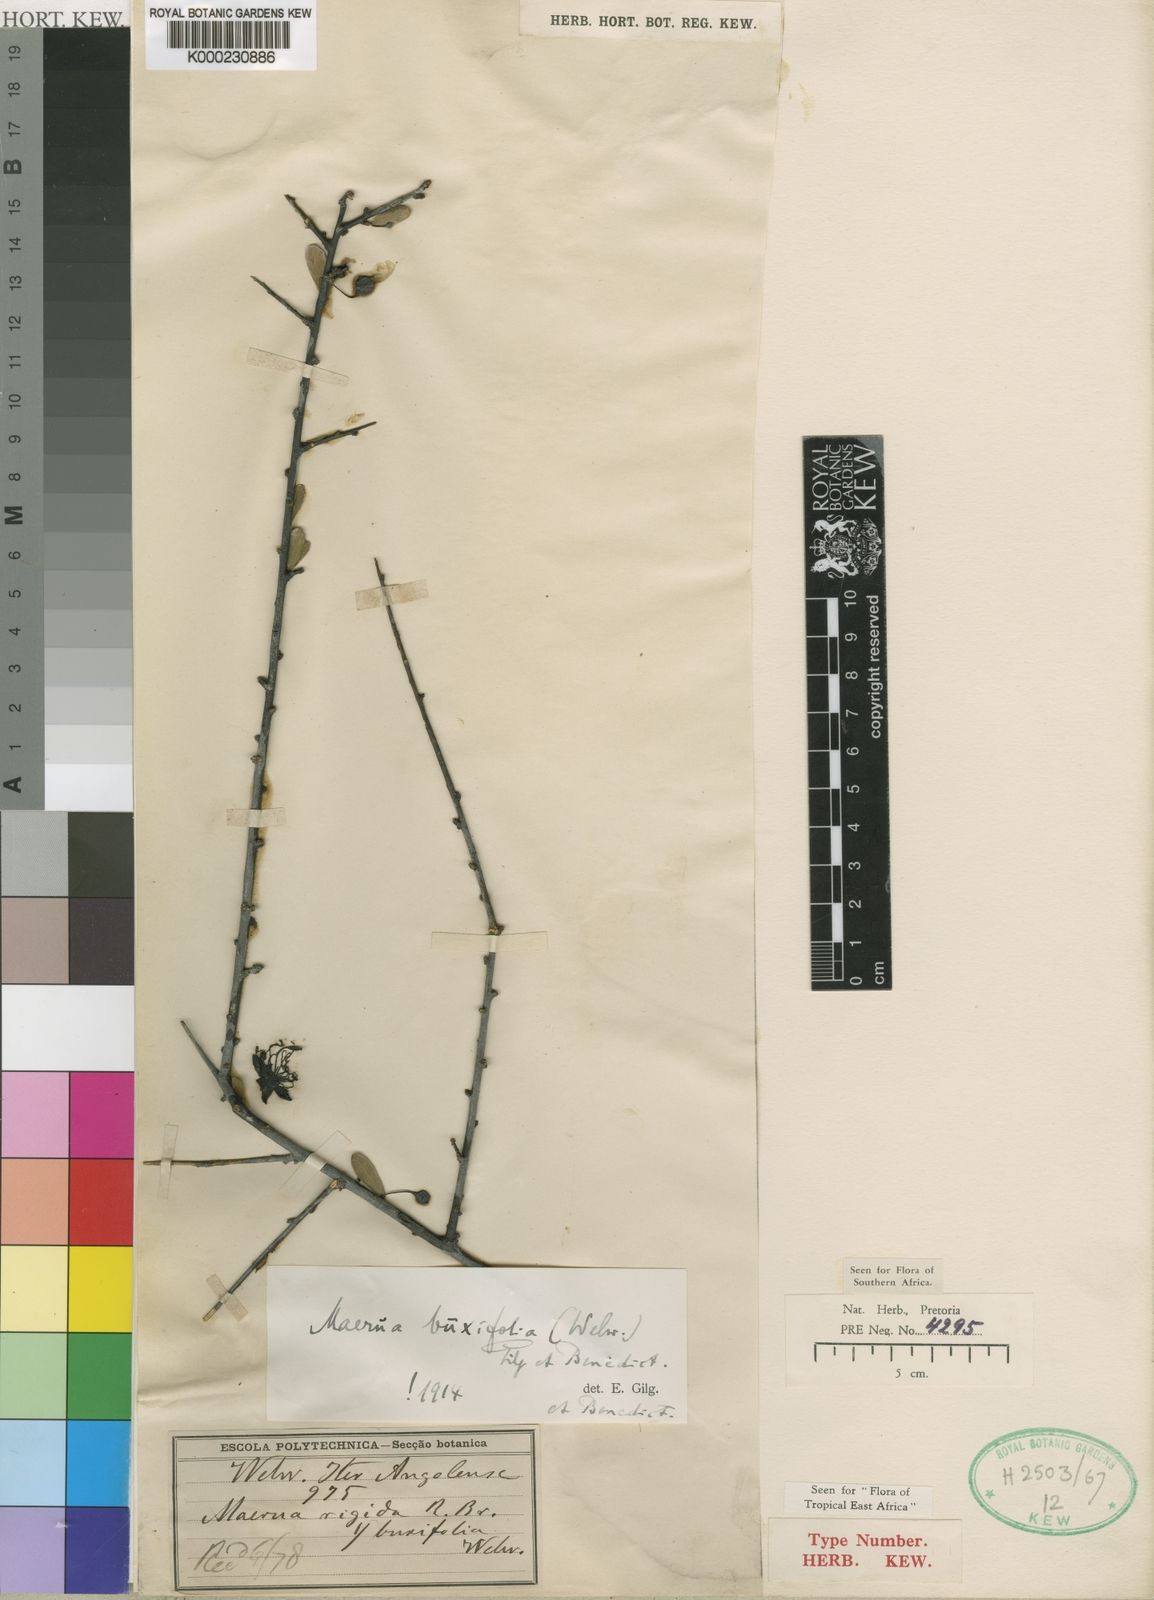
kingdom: Plantae
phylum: Tracheophyta
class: Magnoliopsida
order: Brassicales
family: Capparaceae
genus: Maerua
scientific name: Maerua buxifolia
